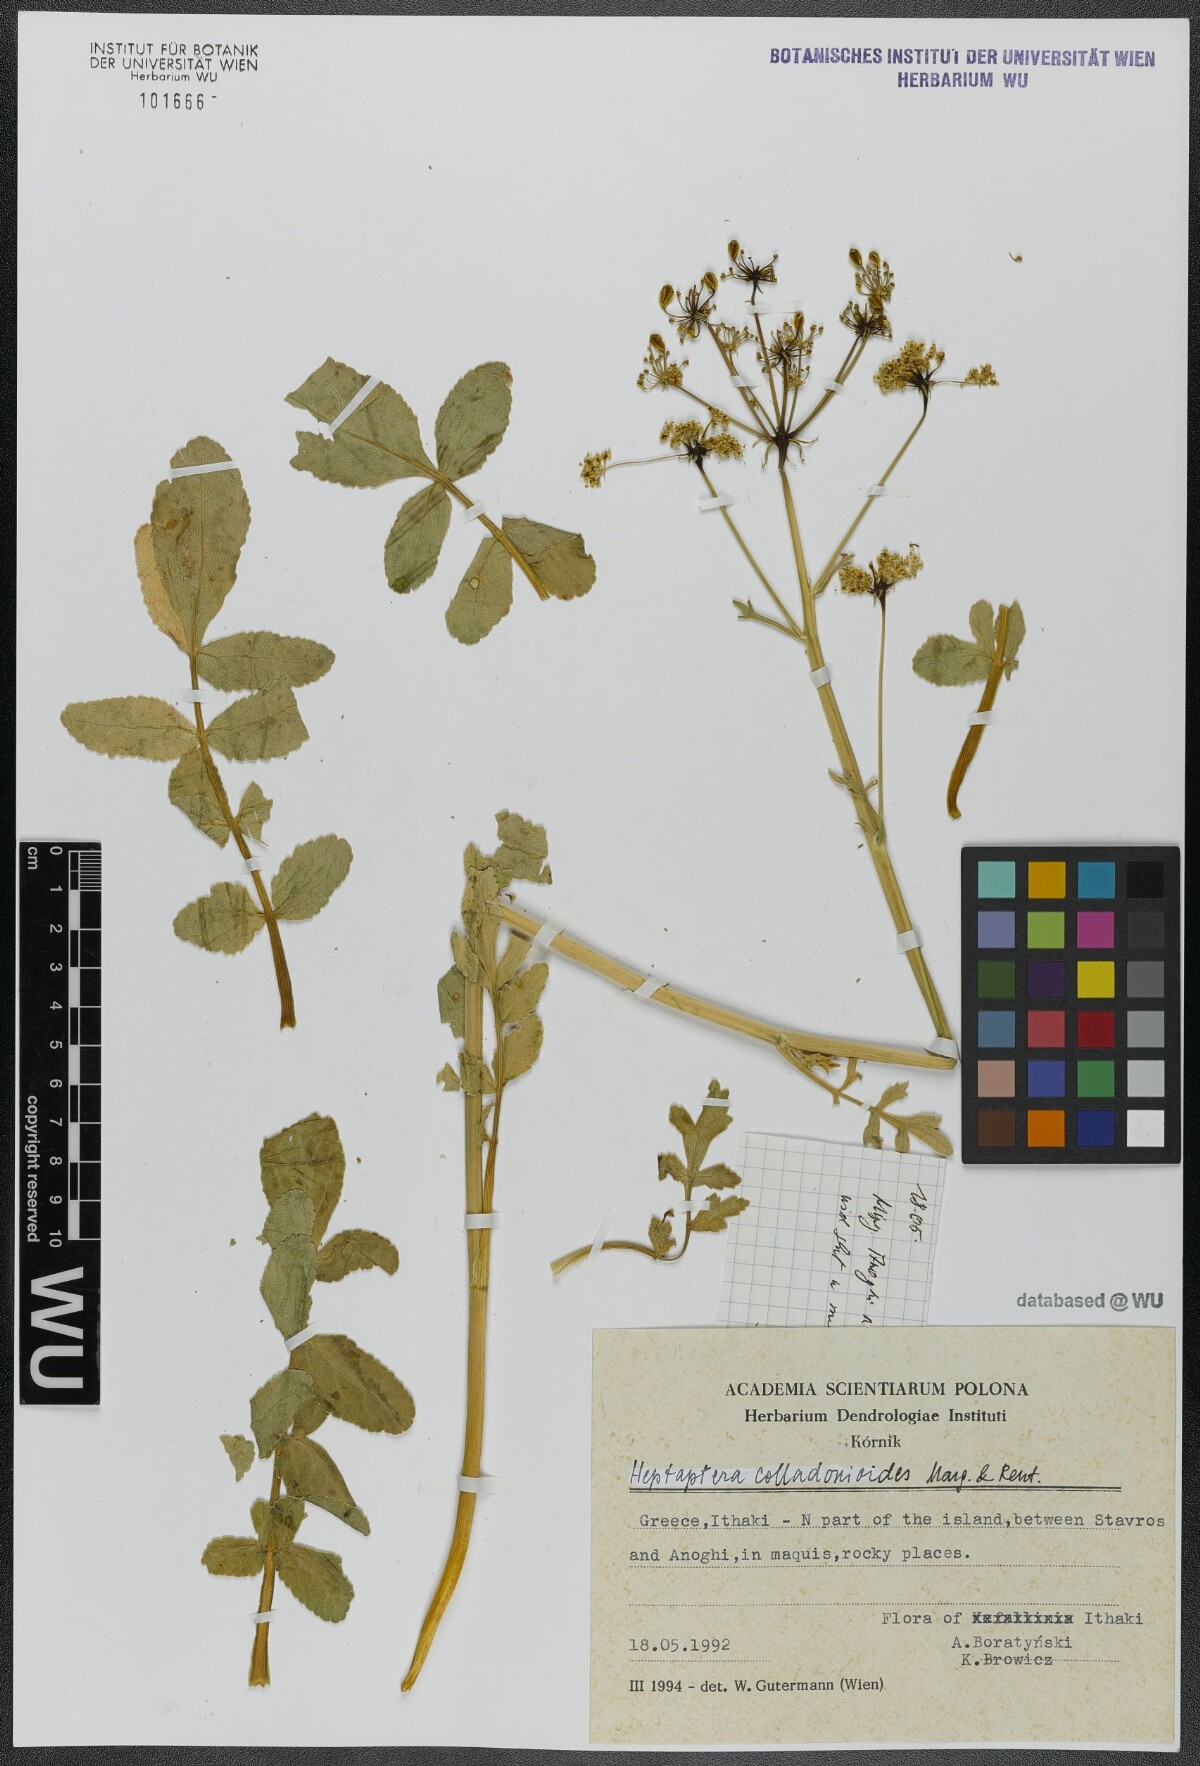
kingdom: Plantae
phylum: Tracheophyta
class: Magnoliopsida
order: Apiales
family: Apiaceae
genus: Heptaptera
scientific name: Heptaptera colladonioides
